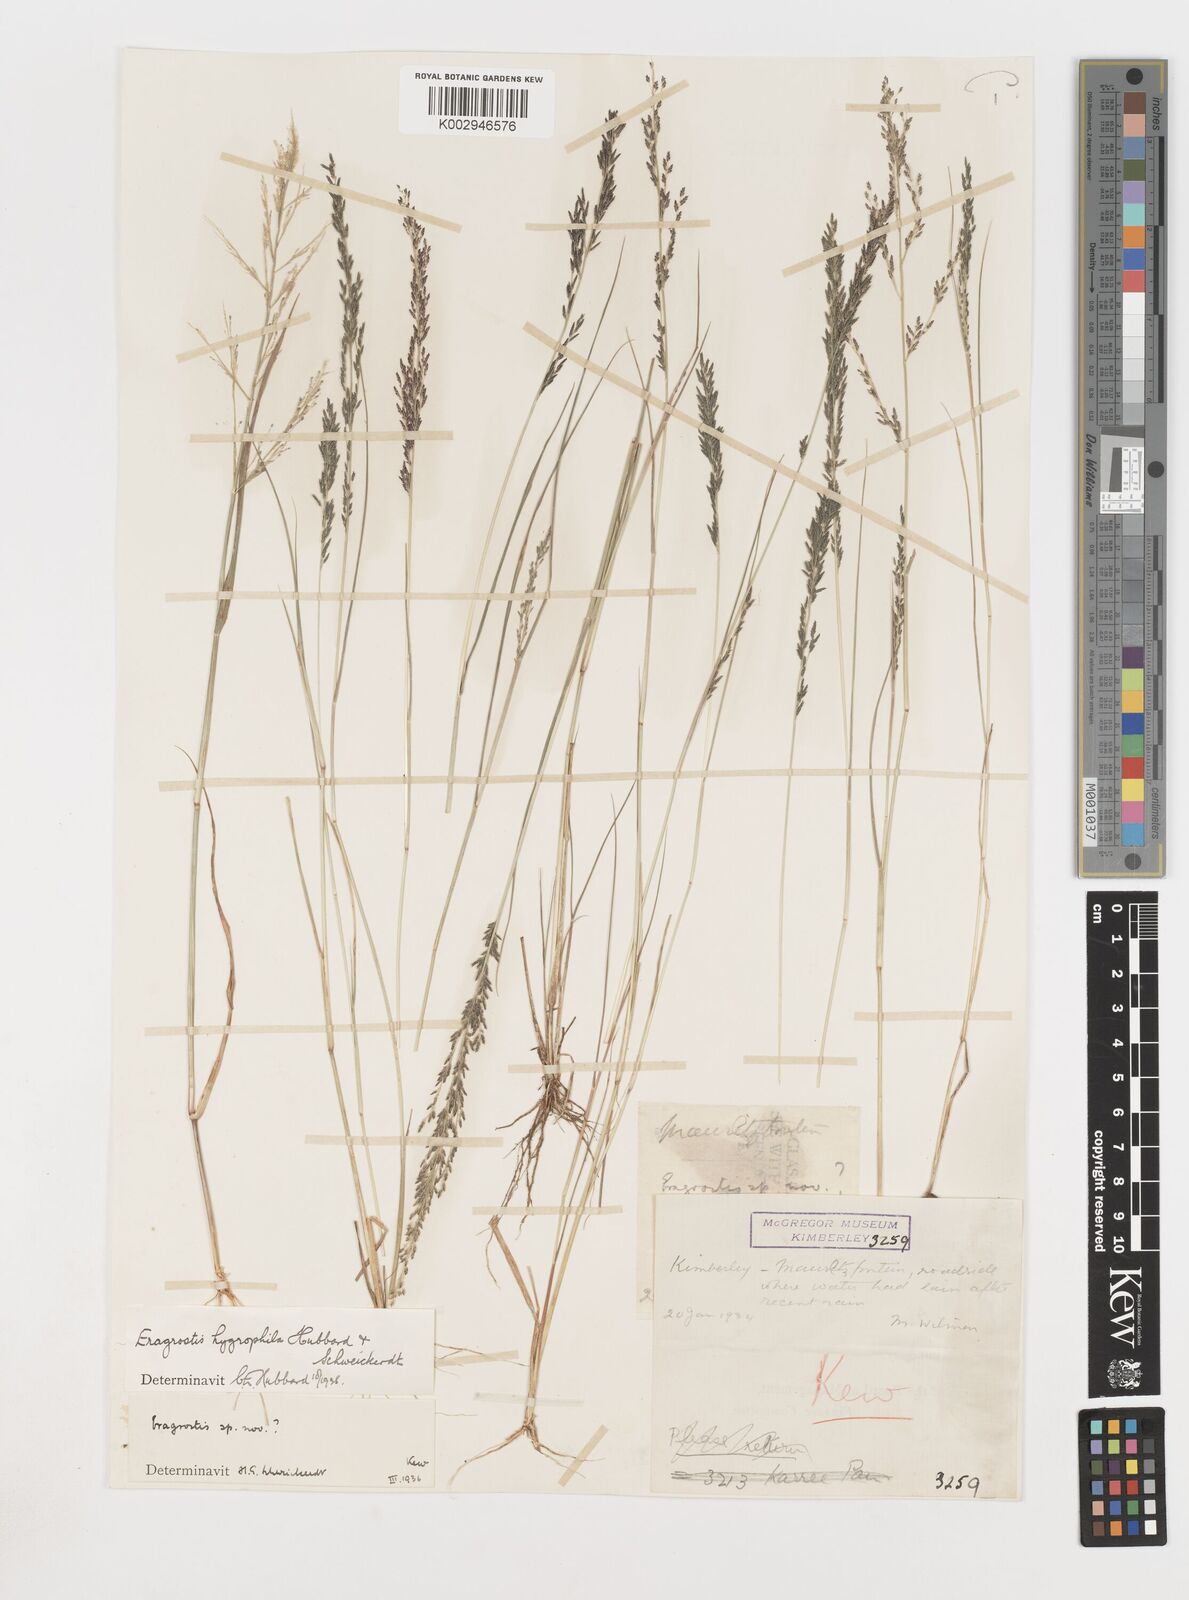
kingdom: Plantae
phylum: Tracheophyta
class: Liliopsida
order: Poales
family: Poaceae
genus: Eragrostis
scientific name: Eragrostis homomalla
